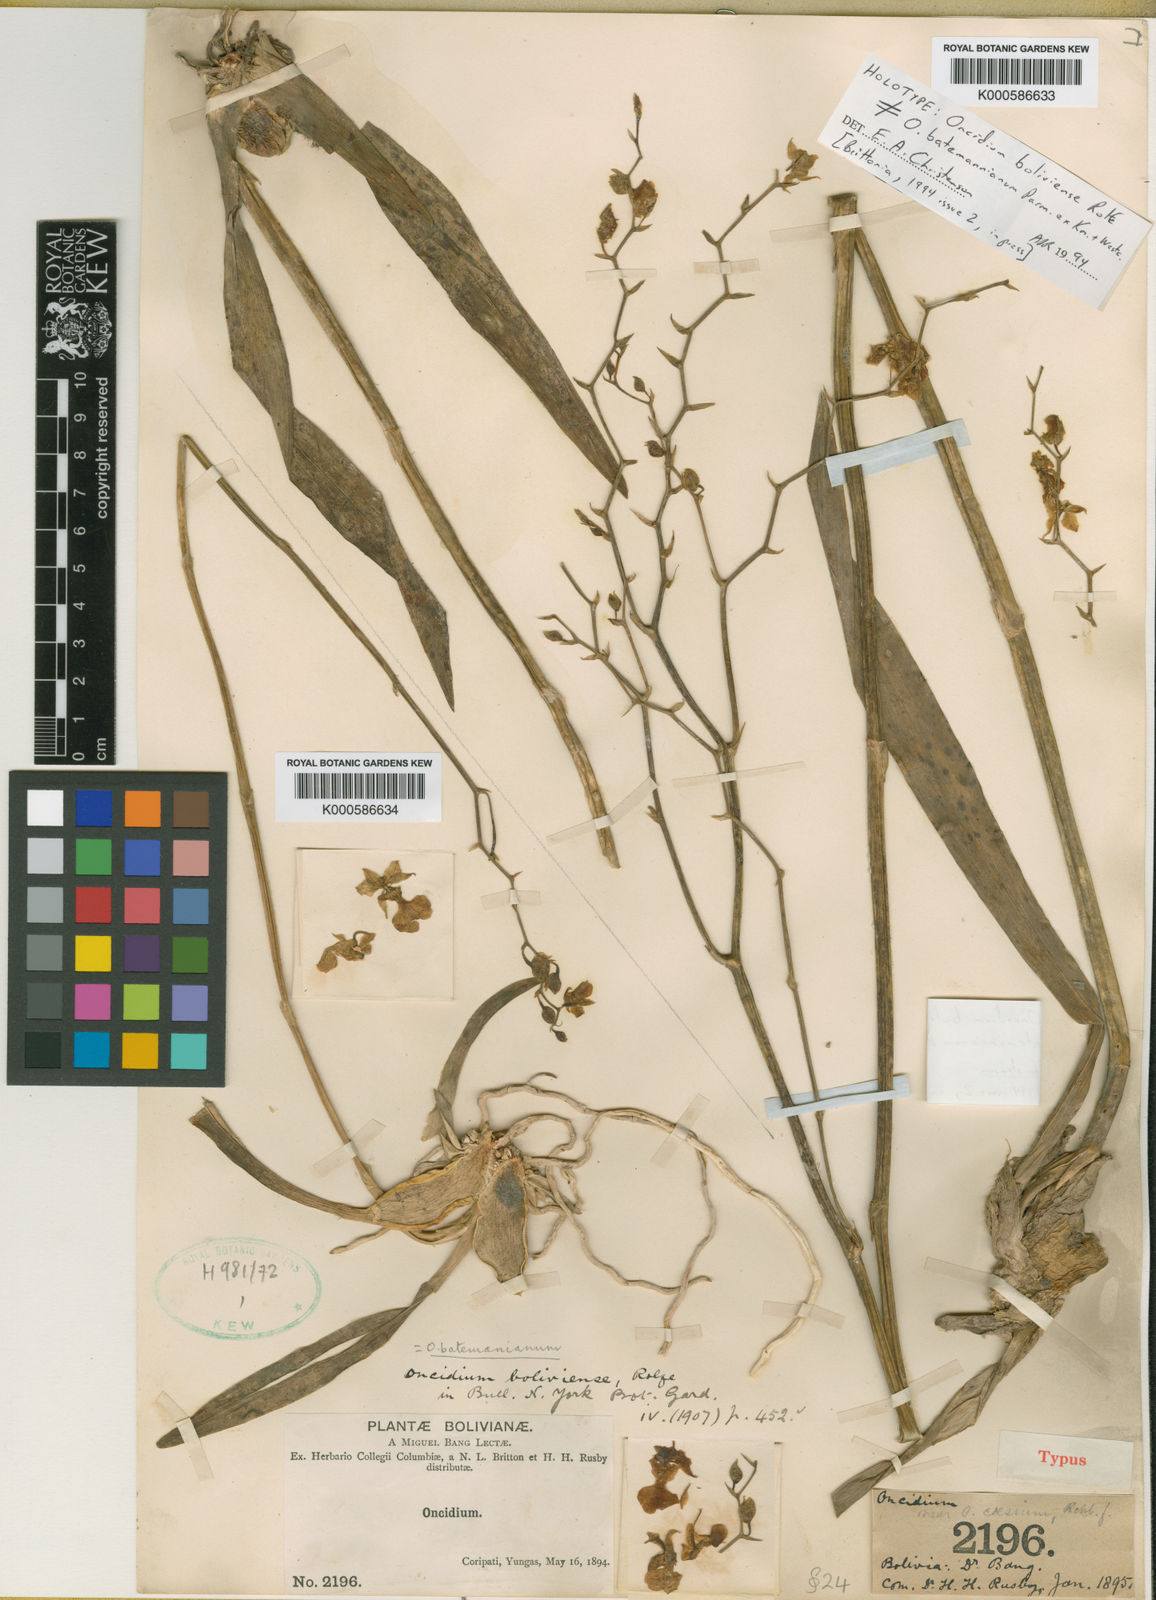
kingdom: Plantae
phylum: Tracheophyta
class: Liliopsida
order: Asparagales
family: Orchidaceae
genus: Gomesa
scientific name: Gomesa ramosa
